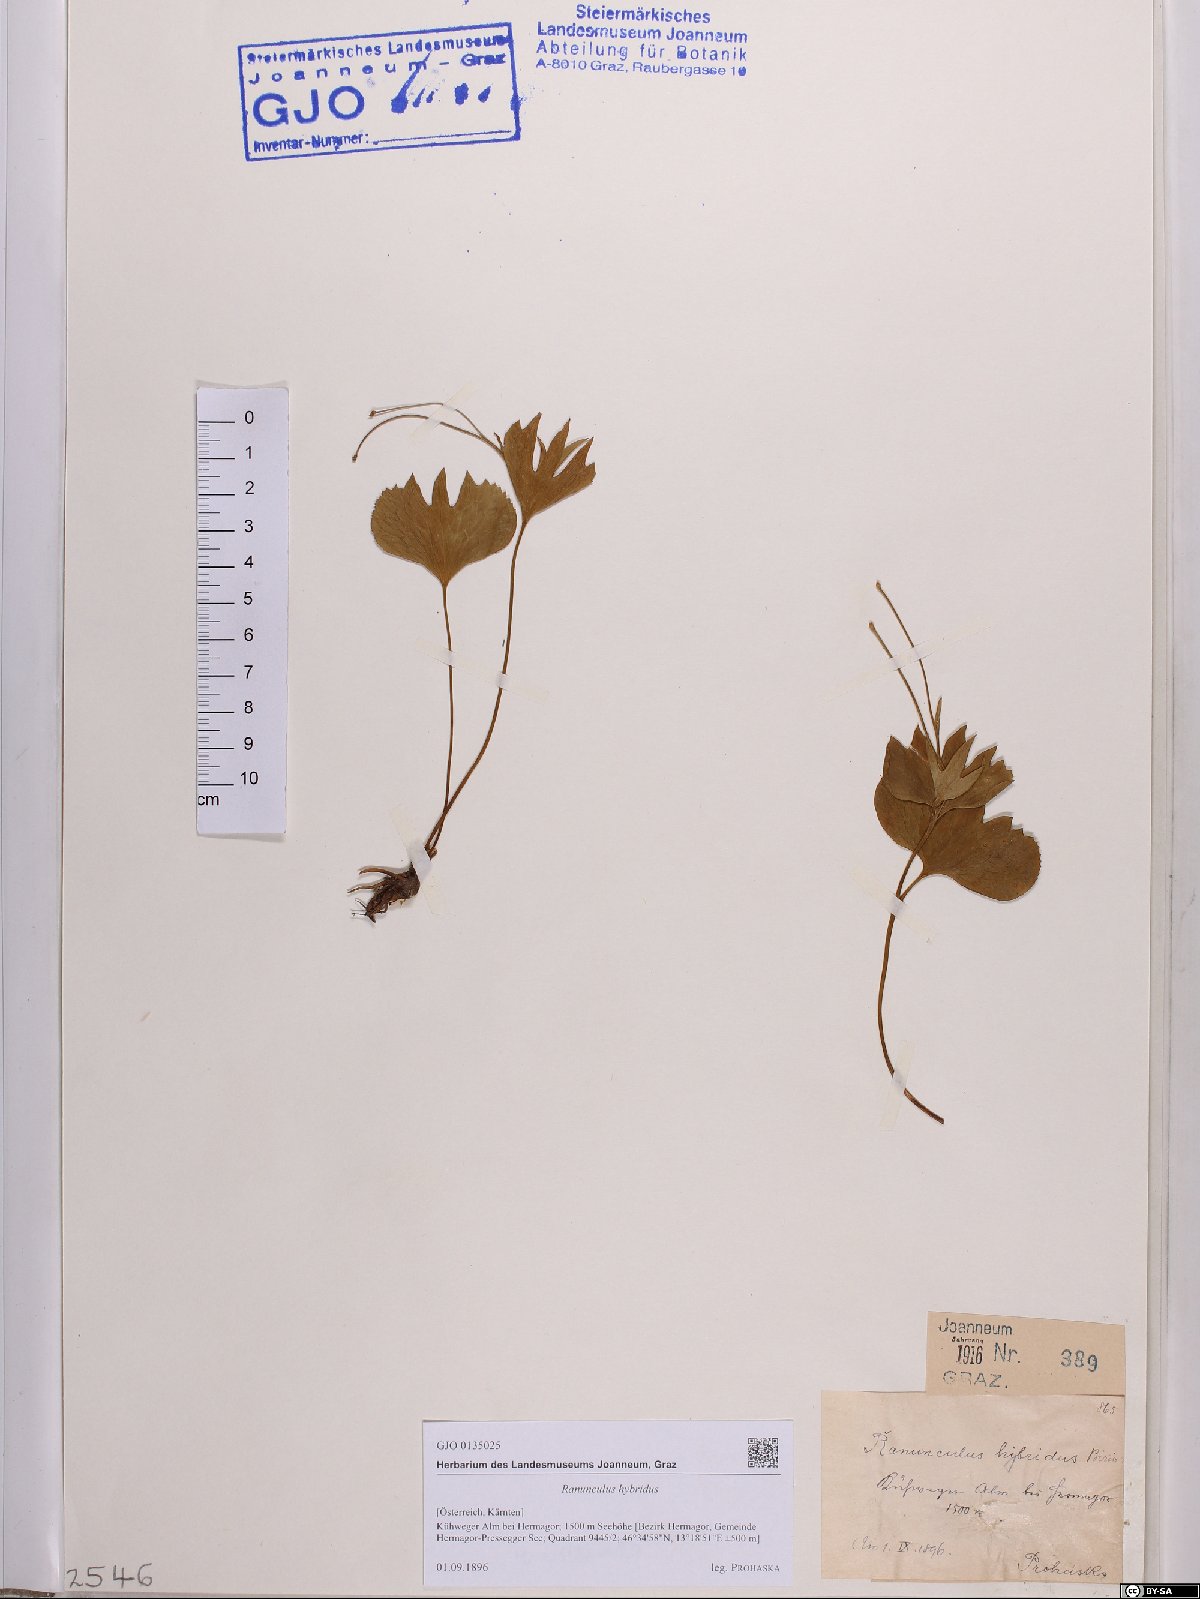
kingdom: Plantae
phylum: Tracheophyta
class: Magnoliopsida
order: Ranunculales
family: Ranunculaceae
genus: Ranunculus
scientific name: Ranunculus hybridus
